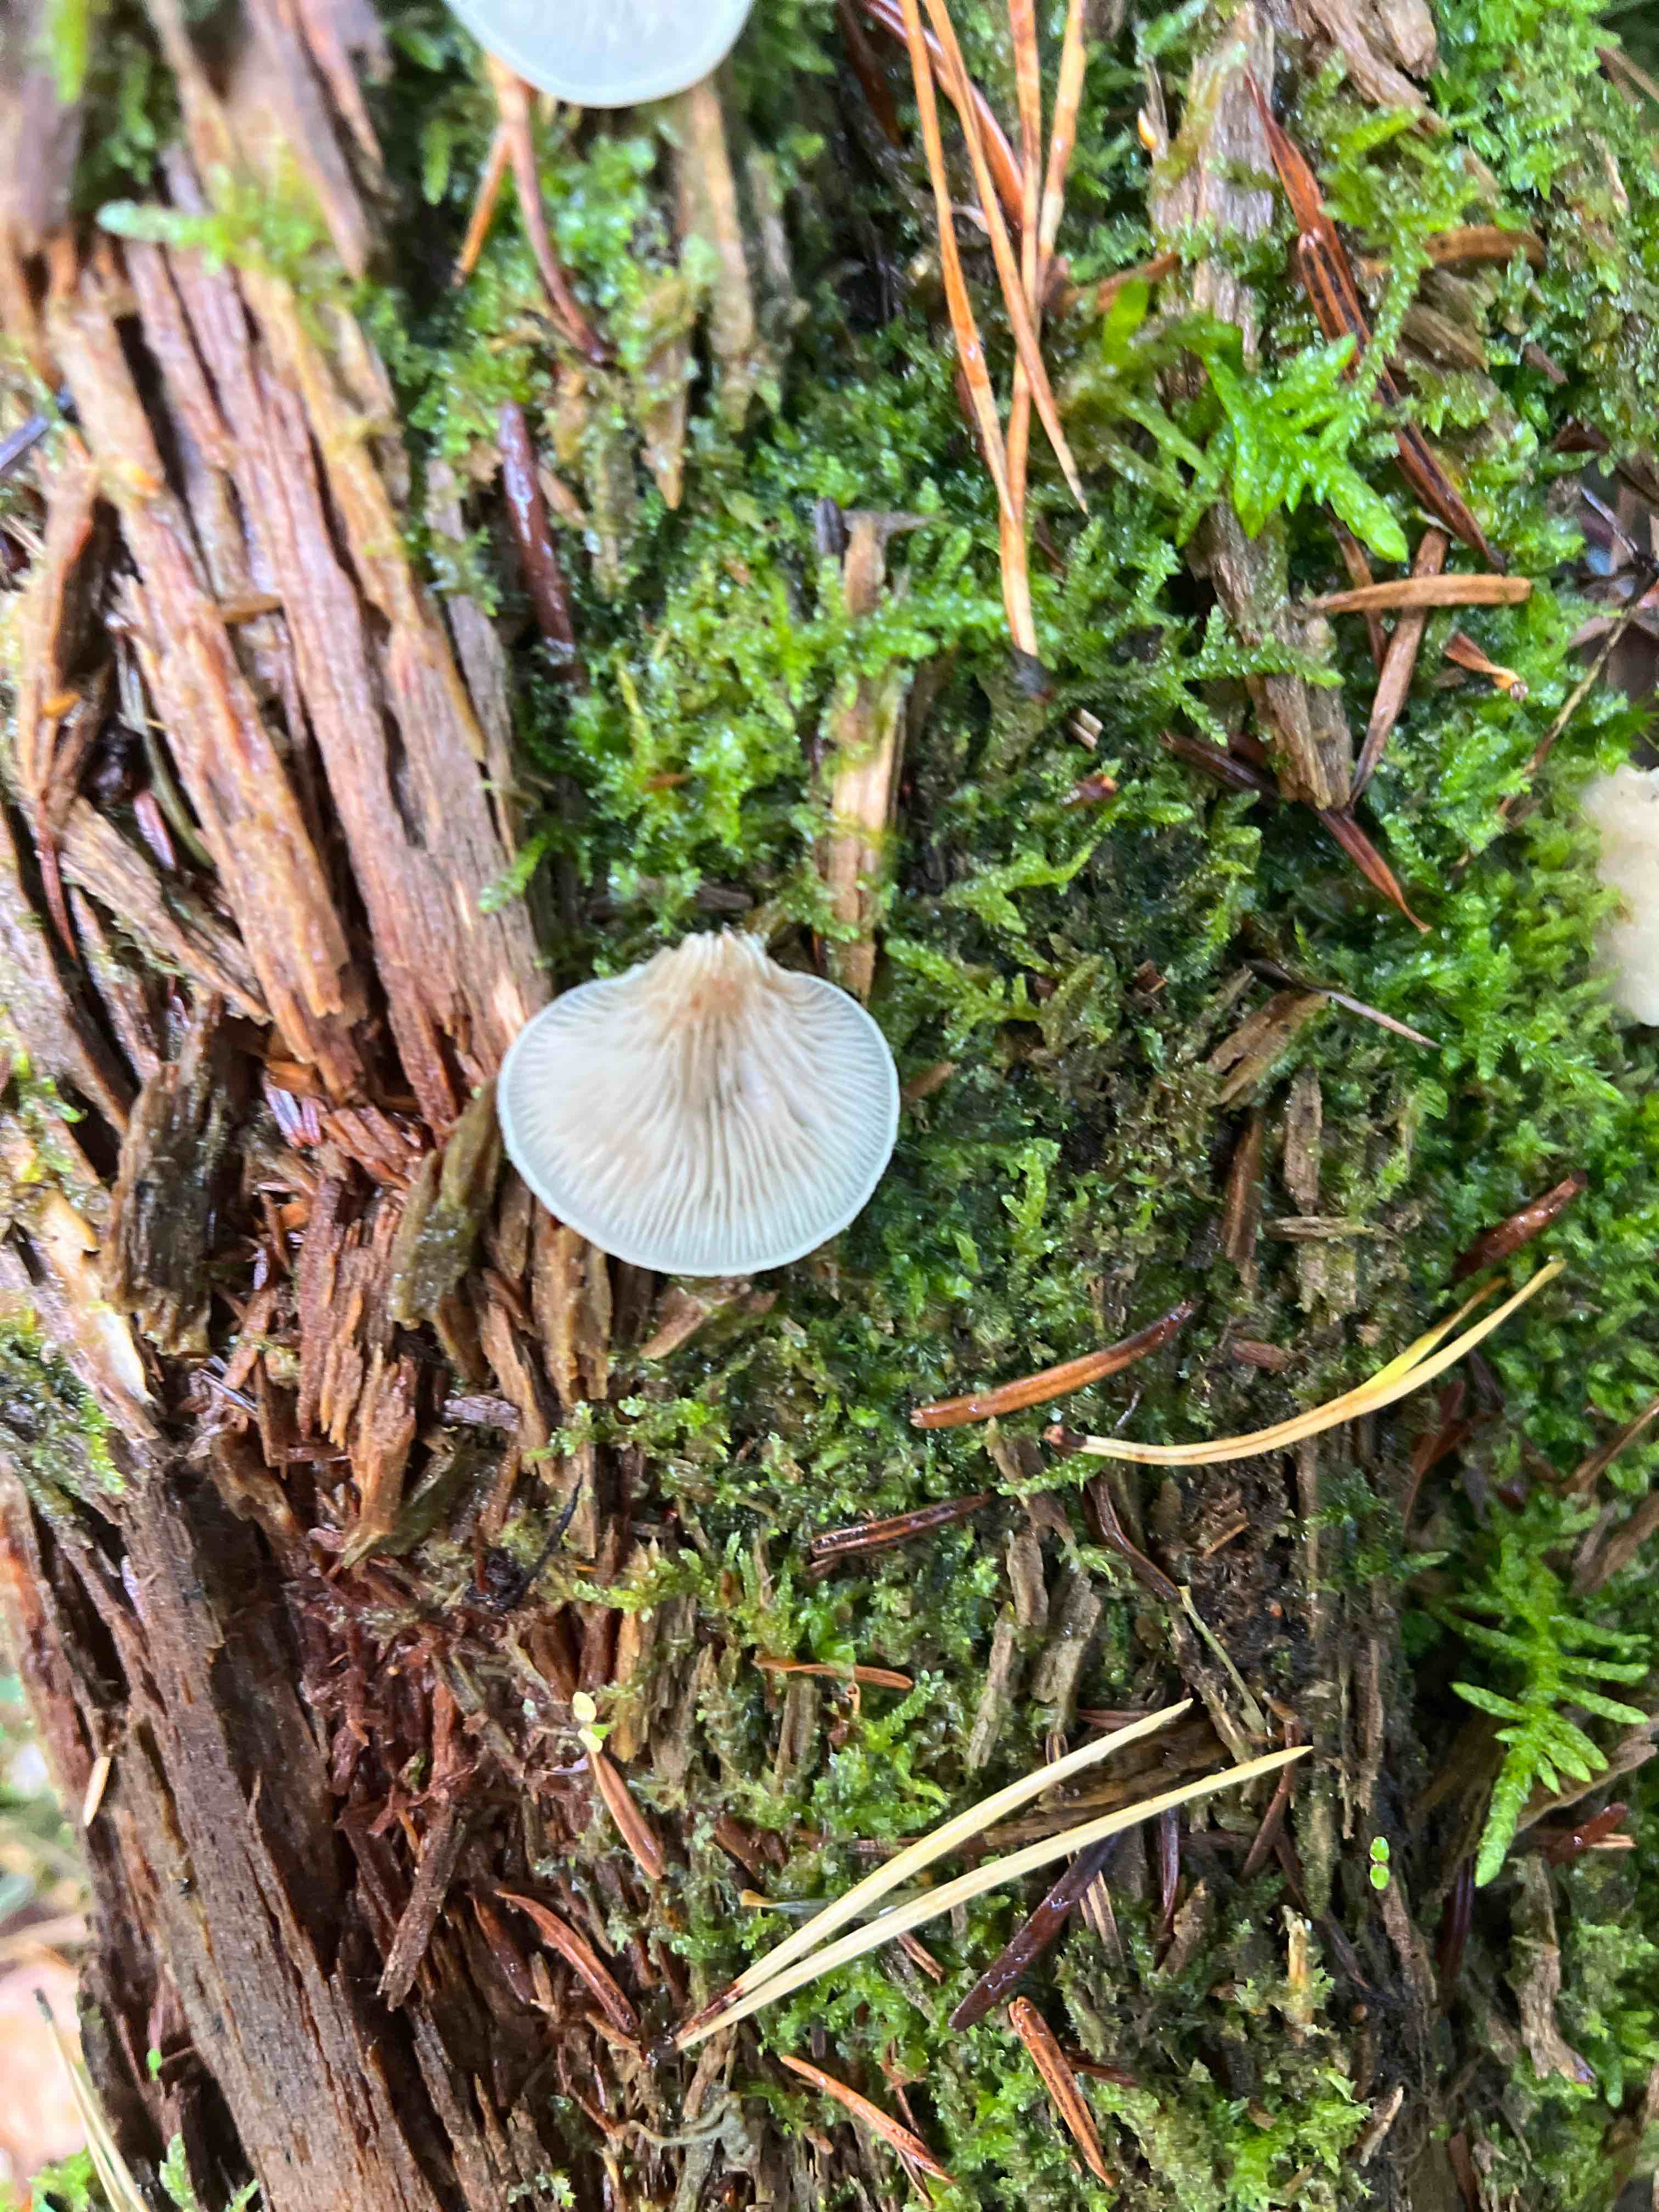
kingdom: Fungi
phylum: Basidiomycota
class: Agaricomycetes
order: Agaricales
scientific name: Agaricales
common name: champignonordenen
